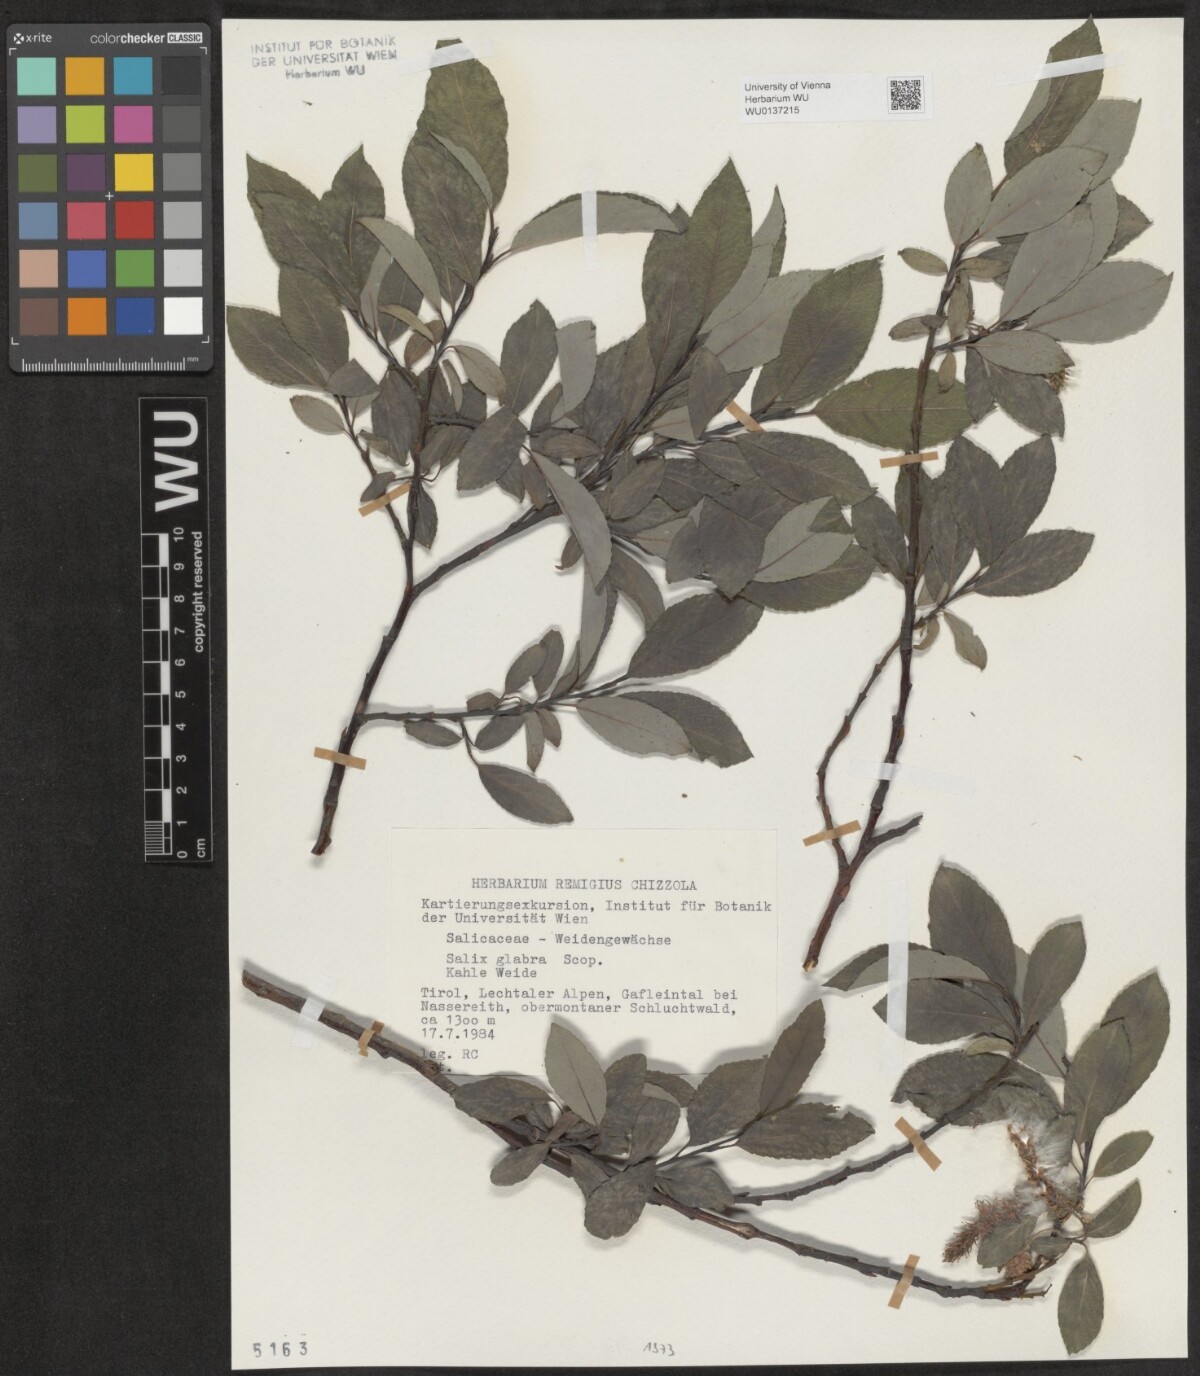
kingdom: Plantae
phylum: Tracheophyta
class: Magnoliopsida
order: Malpighiales
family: Salicaceae
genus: Salix
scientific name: Salix glabra
